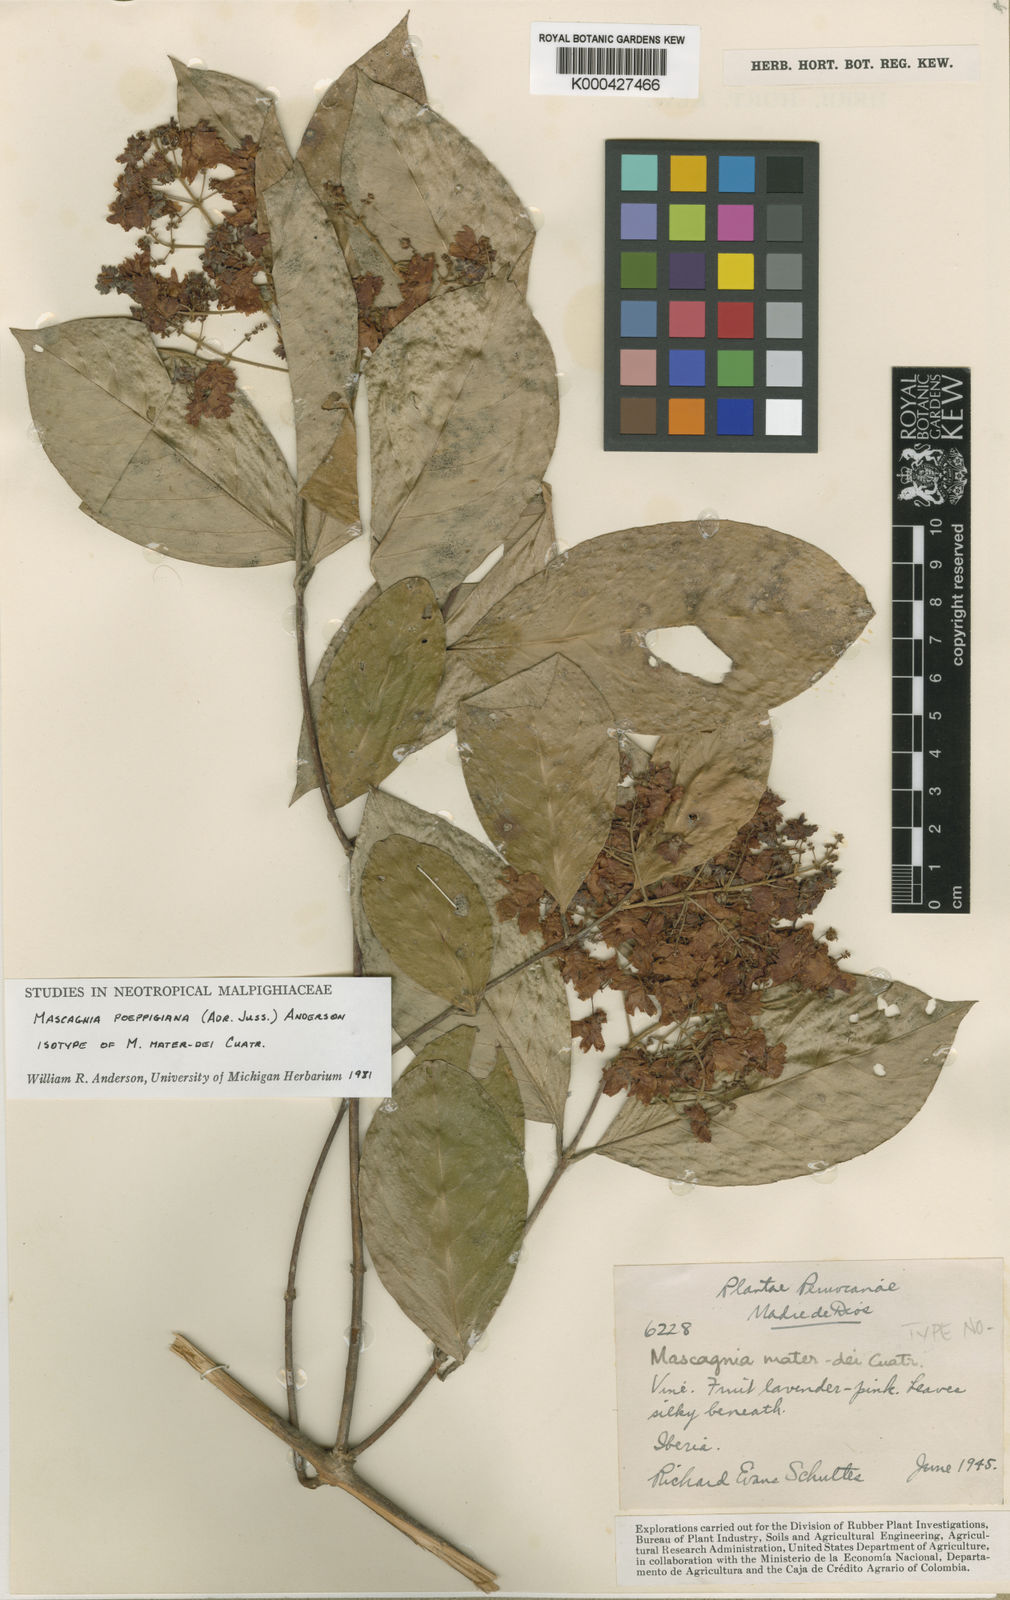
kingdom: Plantae
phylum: Tracheophyta
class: Magnoliopsida
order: Malpighiales
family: Malpighiaceae
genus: Niedenzuella
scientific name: Niedenzuella poeppigiana
